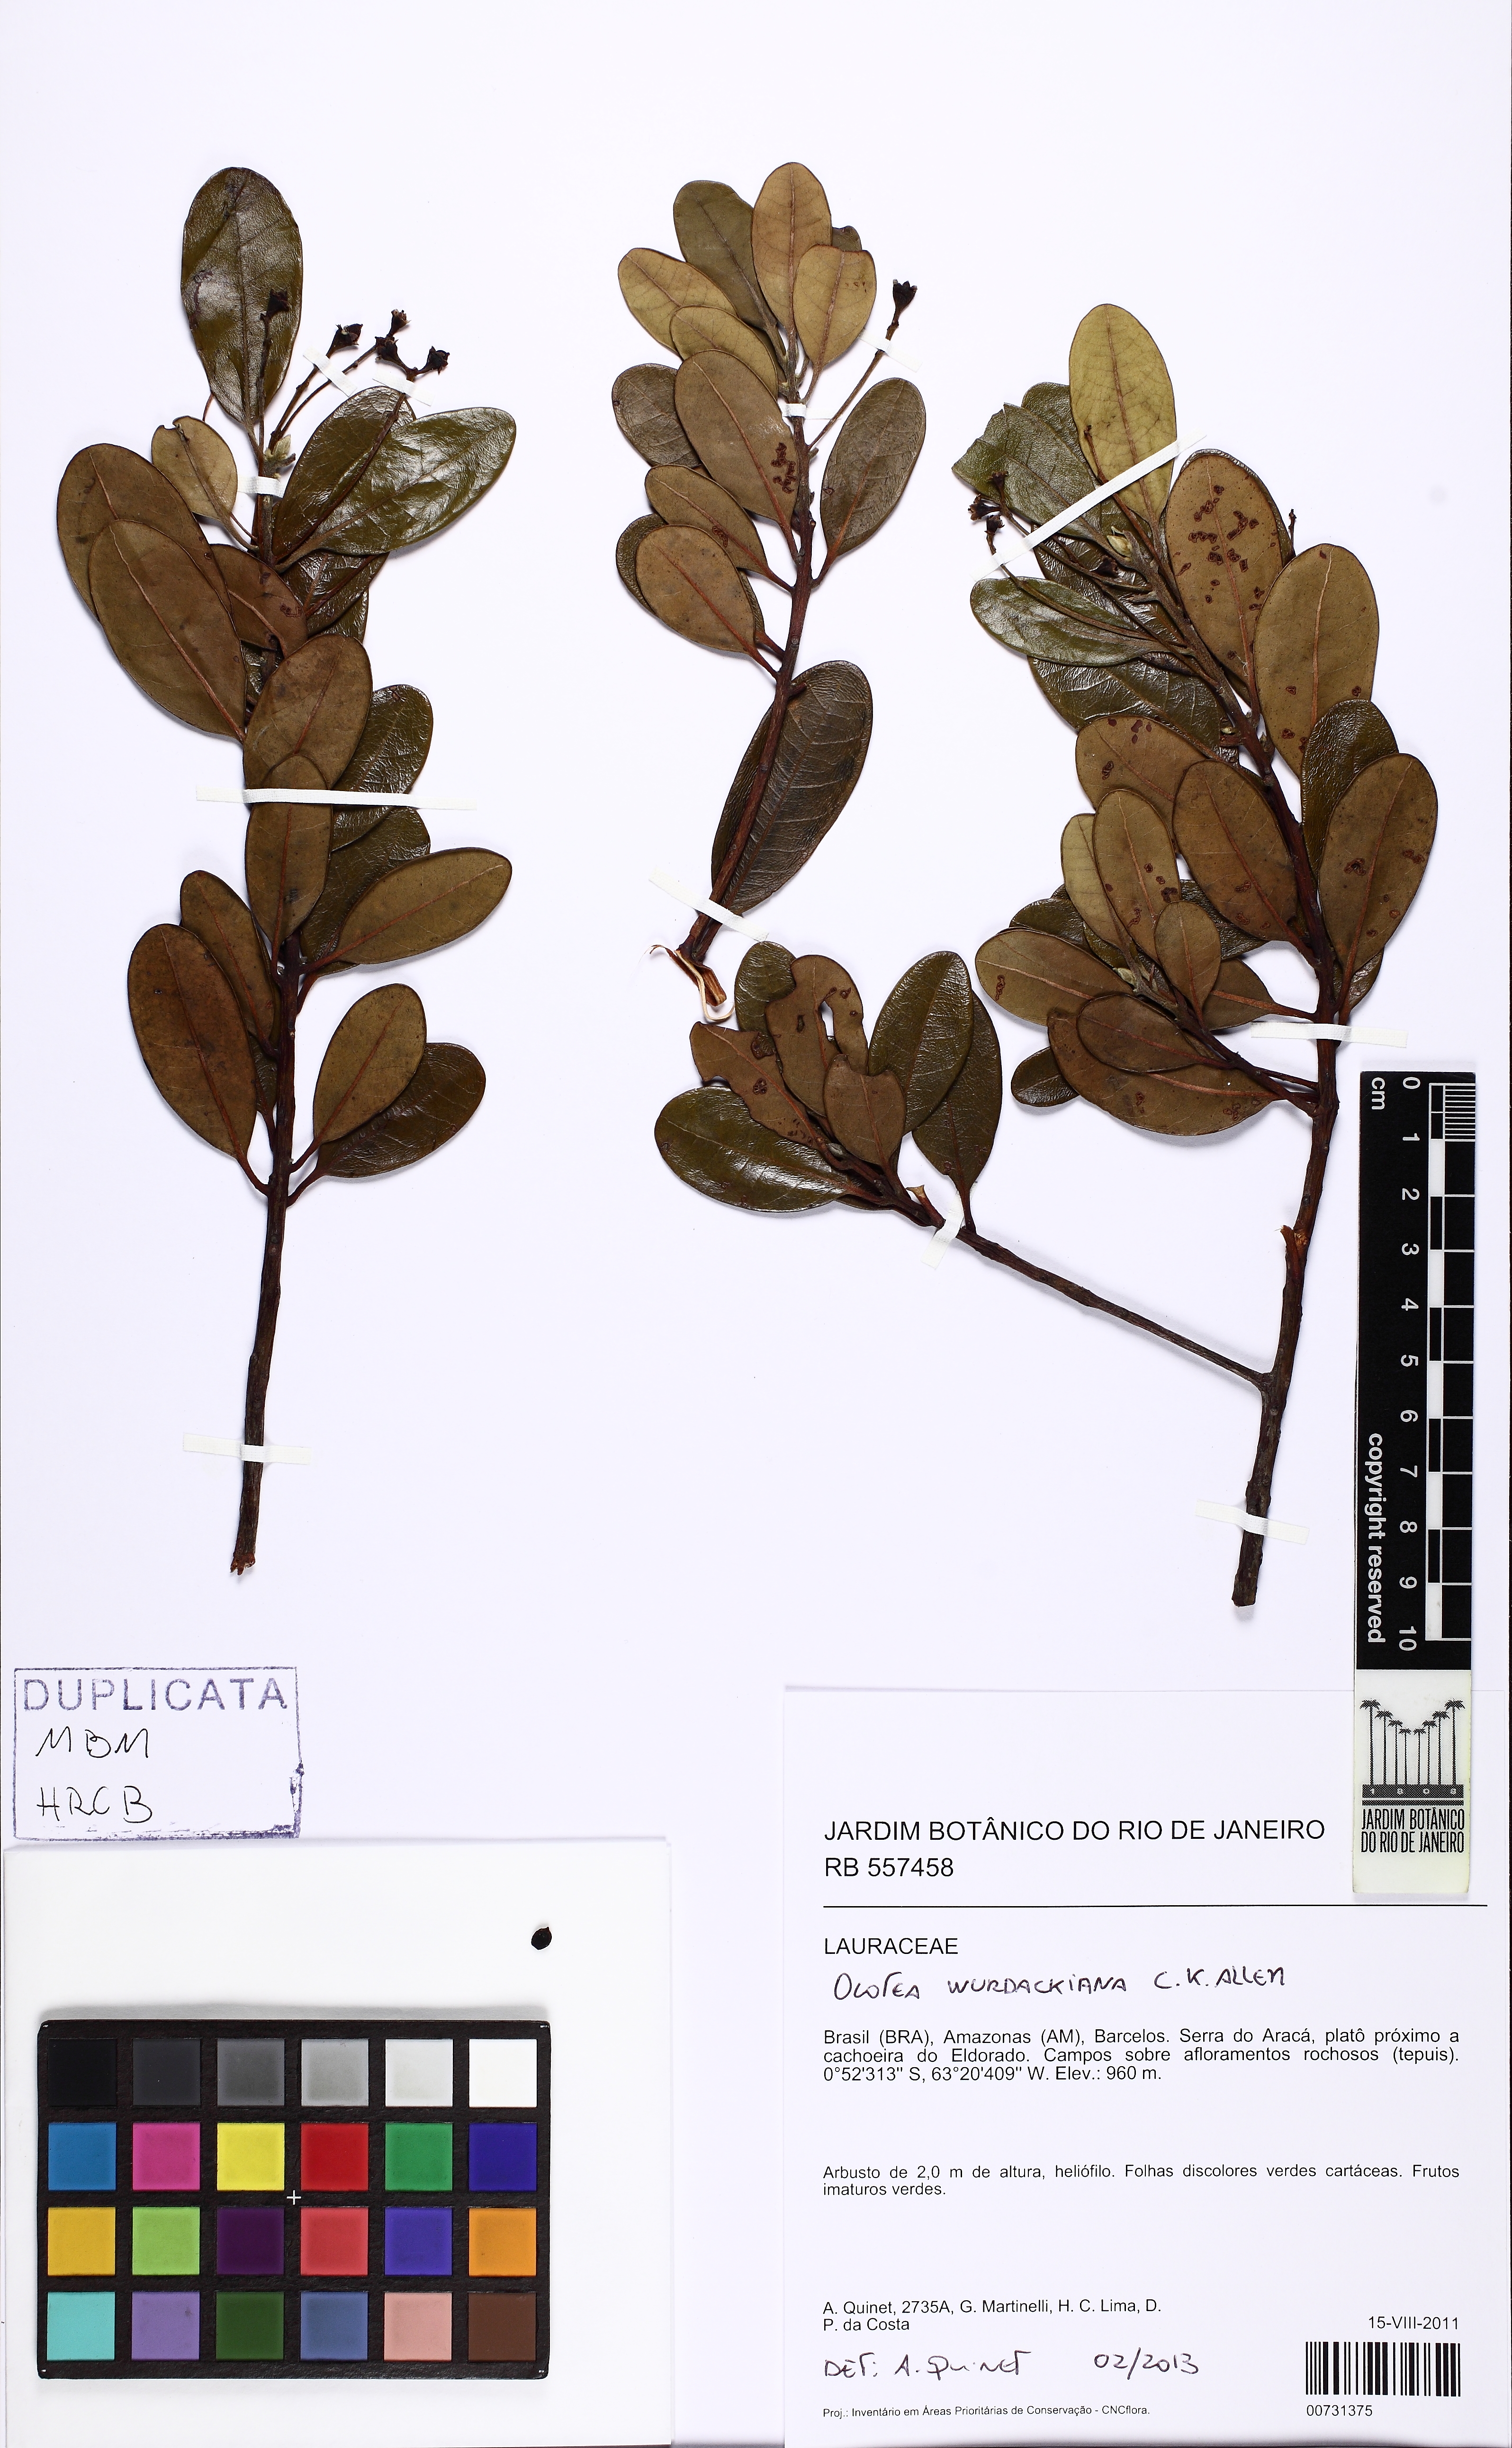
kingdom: Plantae
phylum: Tracheophyta
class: Magnoliopsida
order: Laurales
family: Lauraceae
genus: Ocotea
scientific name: Ocotea wurdackiana
